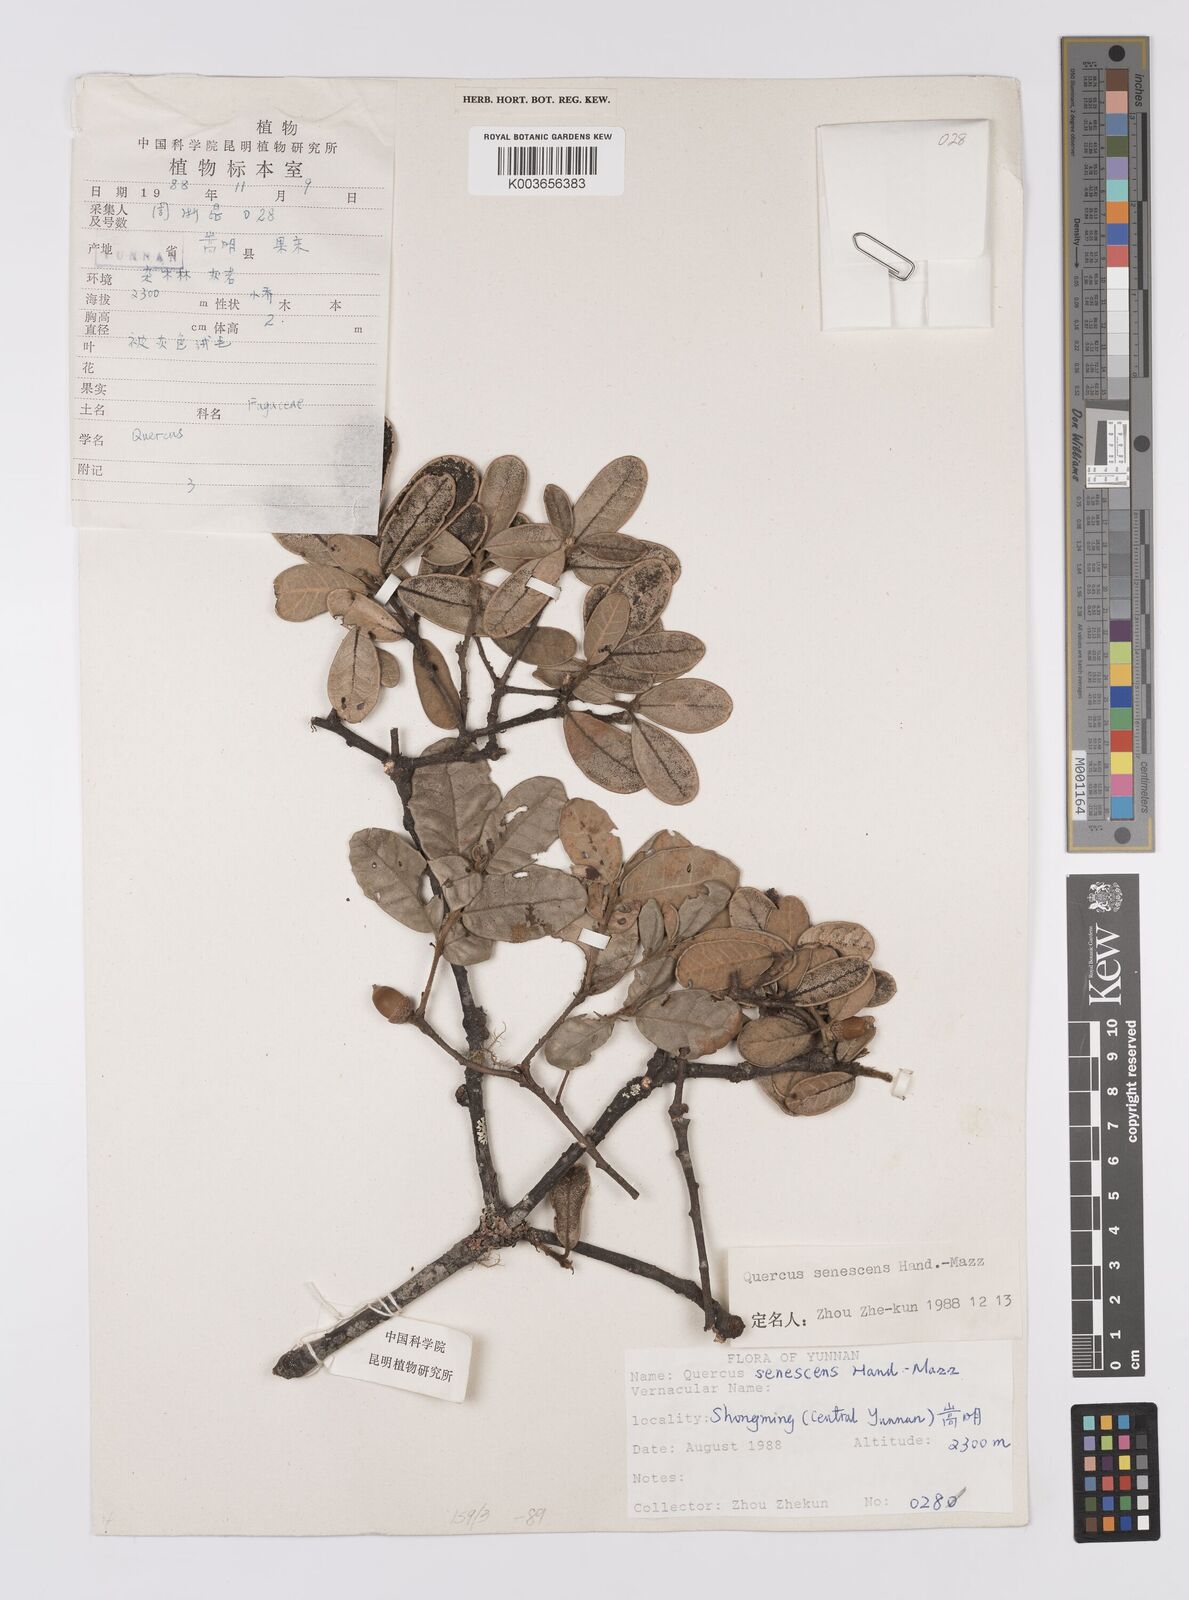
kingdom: Plantae
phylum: Tracheophyta
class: Magnoliopsida
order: Fagales
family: Fagaceae
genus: Quercus
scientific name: Quercus senescens
